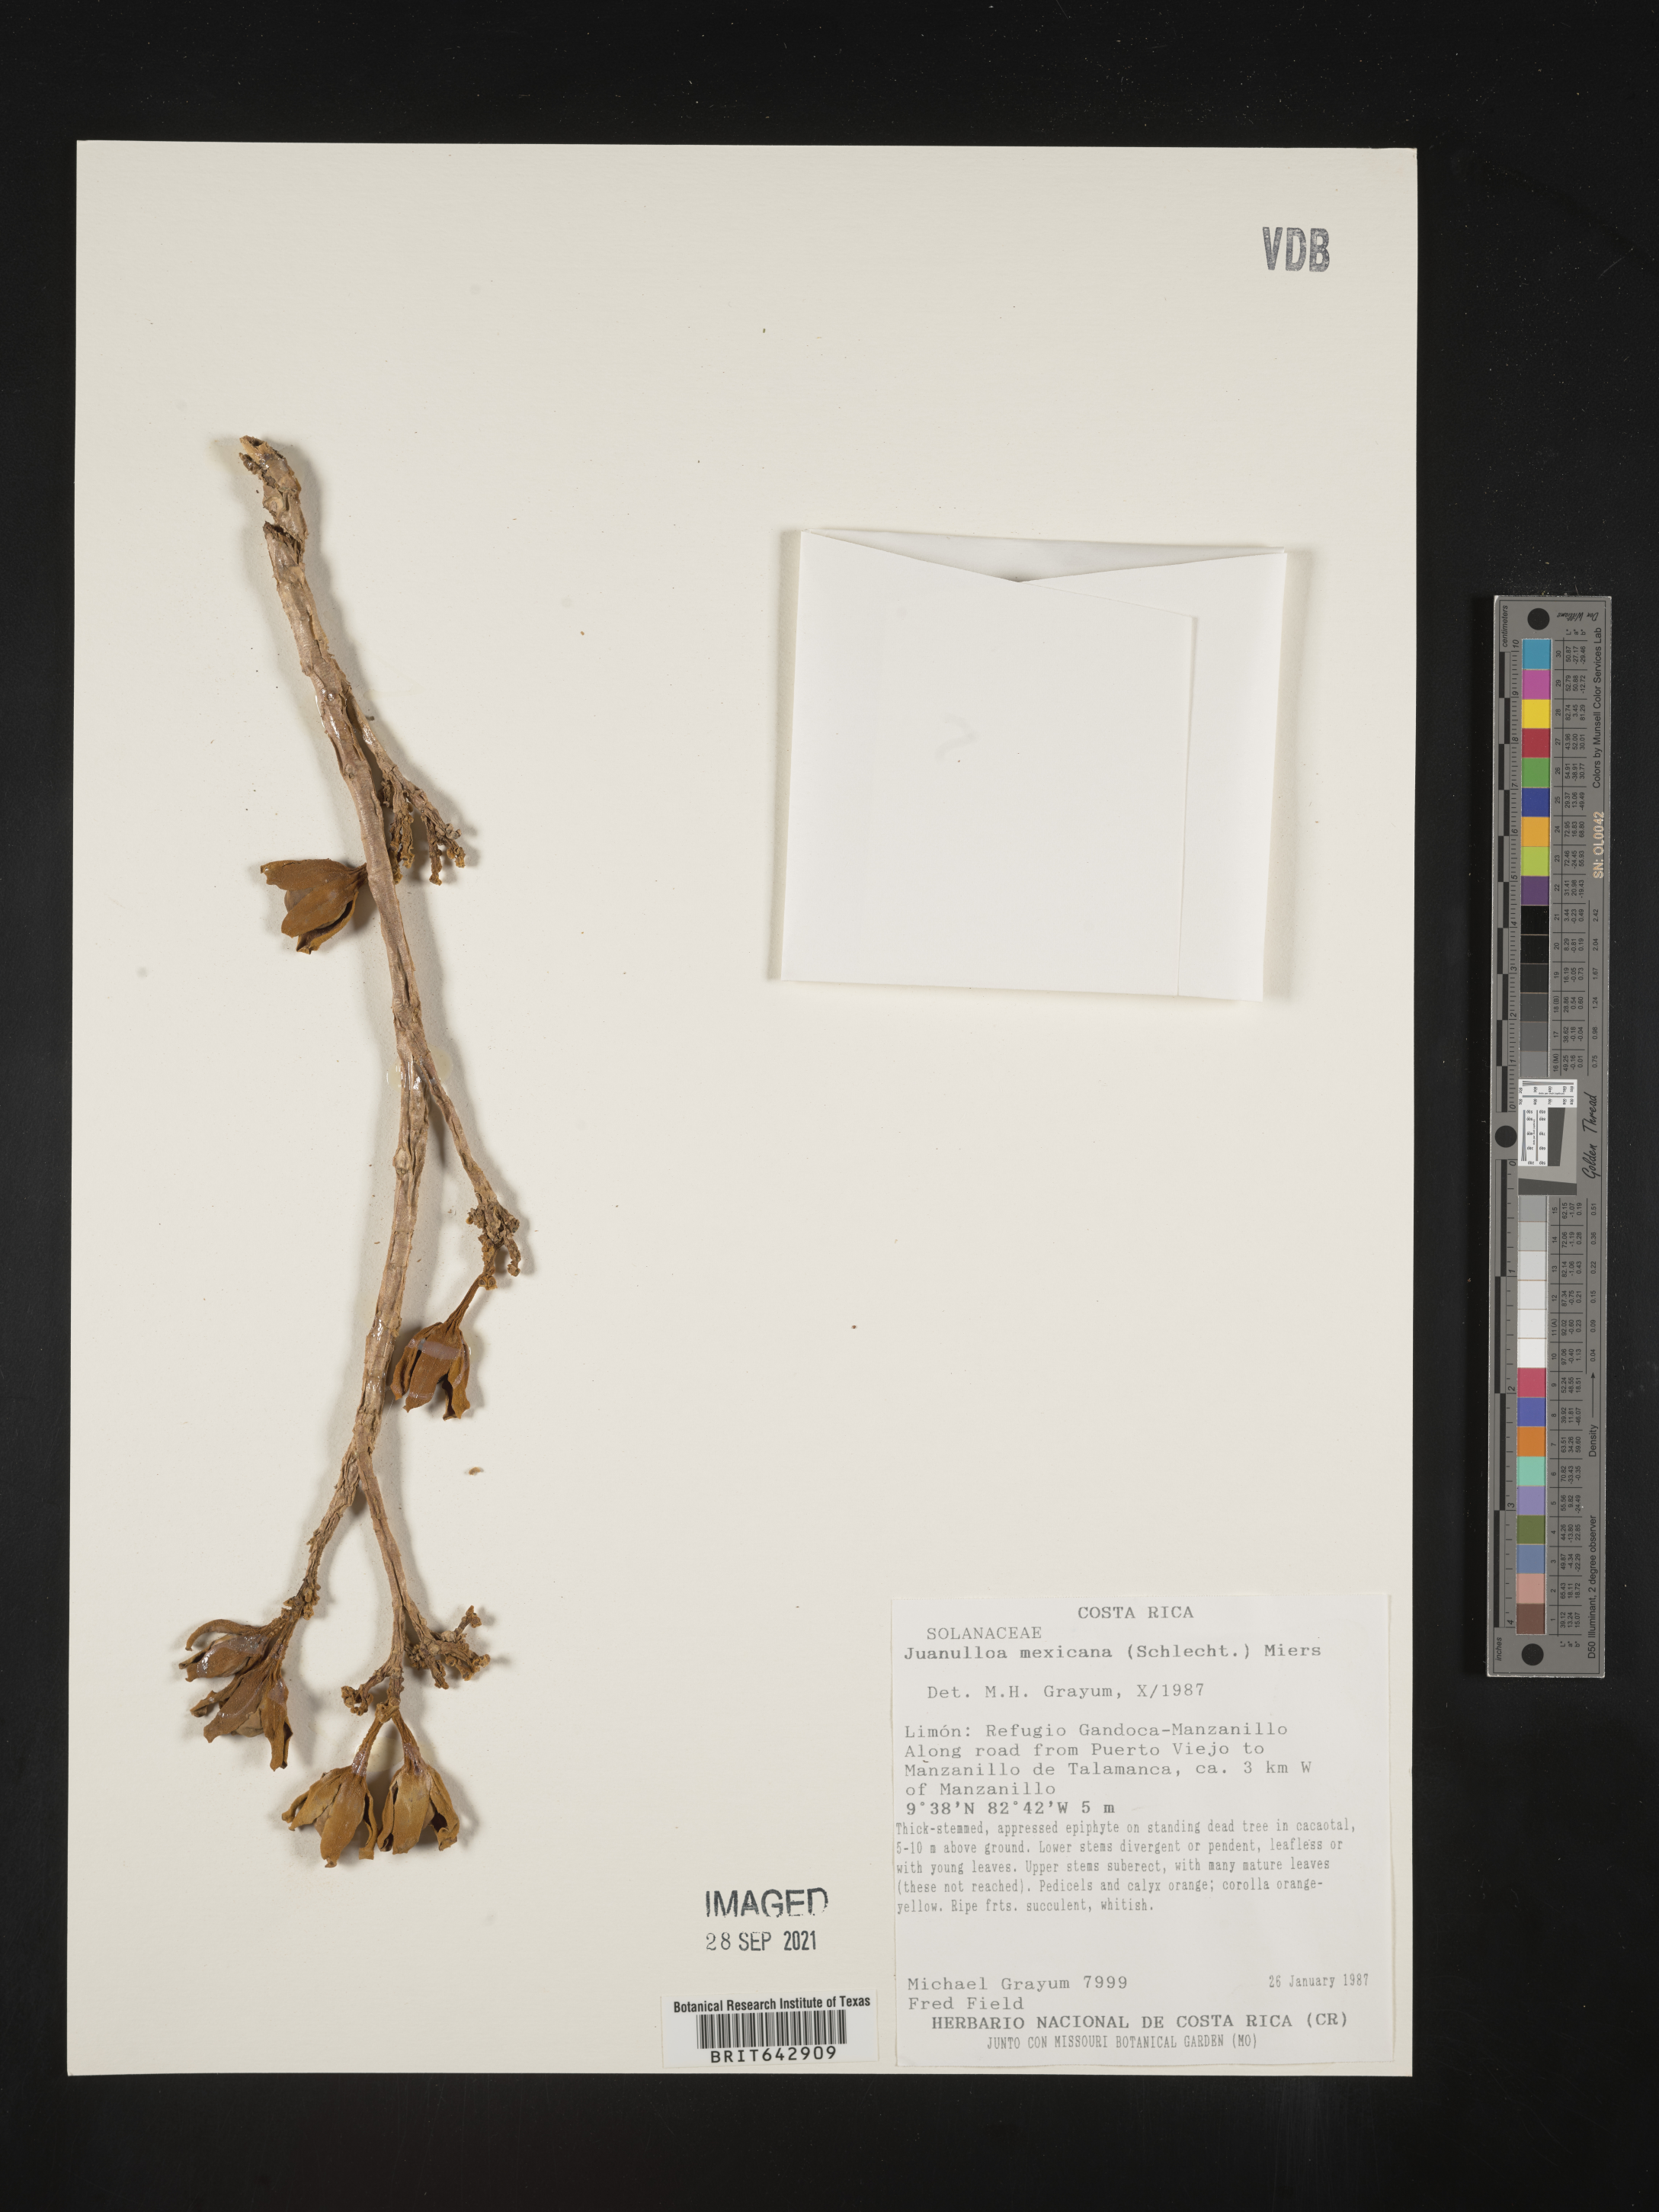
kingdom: Plantae
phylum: Tracheophyta
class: Magnoliopsida
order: Solanales
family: Solanaceae
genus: Juanulloa
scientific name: Juanulloa mexicana
